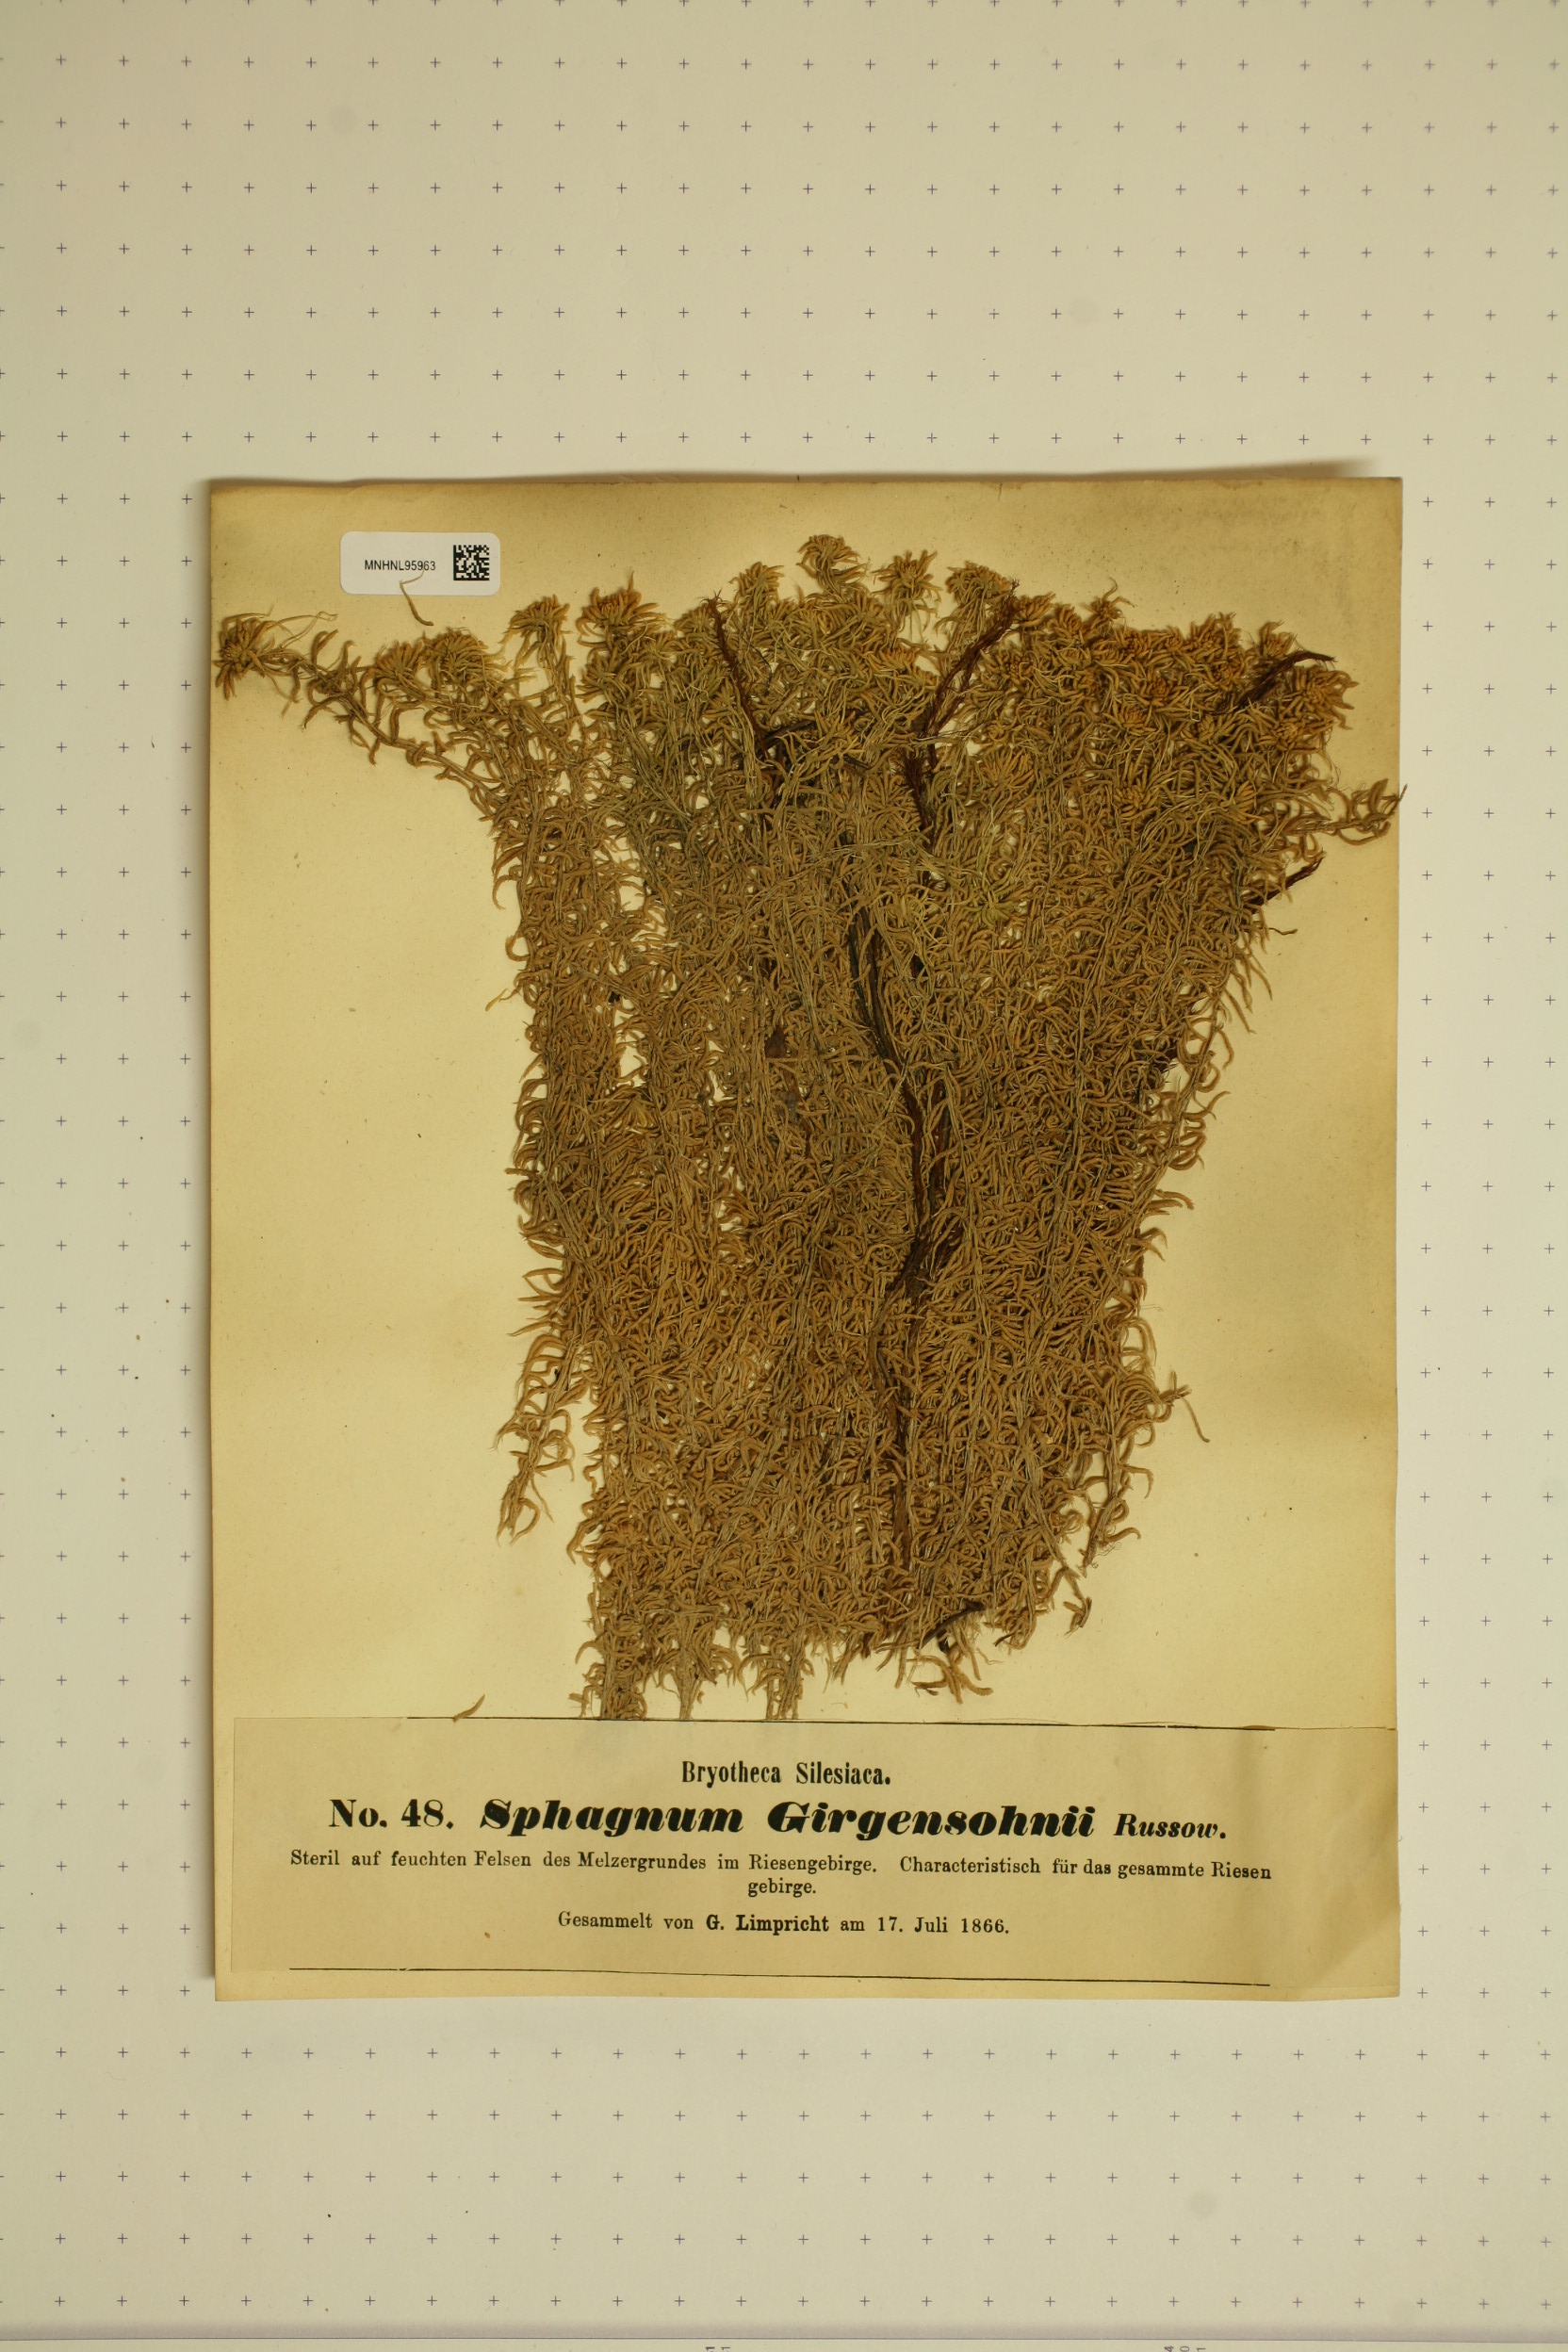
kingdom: Plantae
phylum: Bryophyta
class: Sphagnopsida
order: Sphagnales
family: Sphagnaceae
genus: Sphagnum
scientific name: Sphagnum girgensohnii
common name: Girgensohn's peat moss
